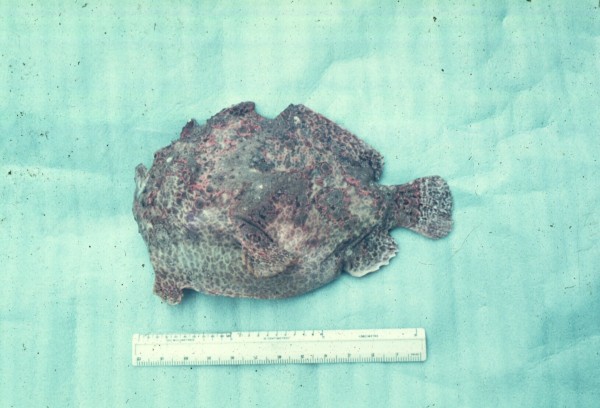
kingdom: Animalia
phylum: Chordata
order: Lophiiformes
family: Antennariidae
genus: Antennarius
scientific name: Antennarius
